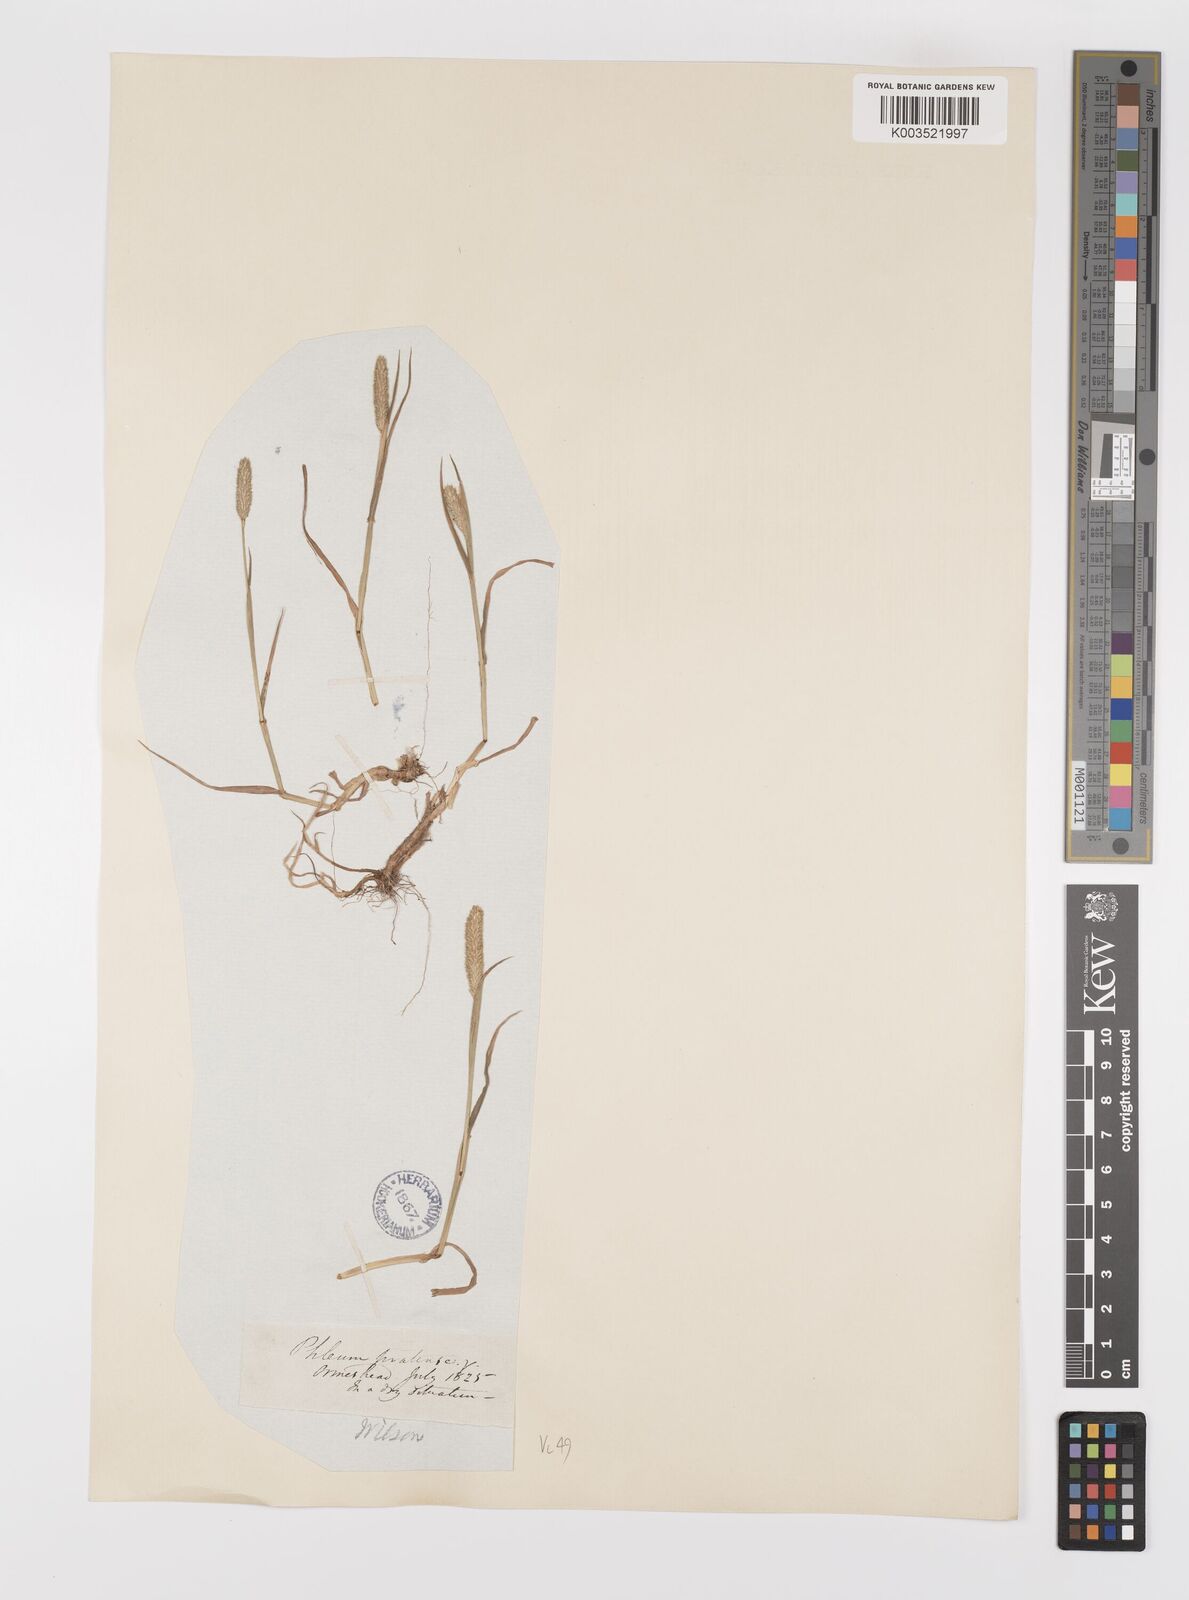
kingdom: Plantae
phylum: Tracheophyta
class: Liliopsida
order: Poales
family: Poaceae
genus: Phleum
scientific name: Phleum bertolonii
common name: Smaller cat's-tail
